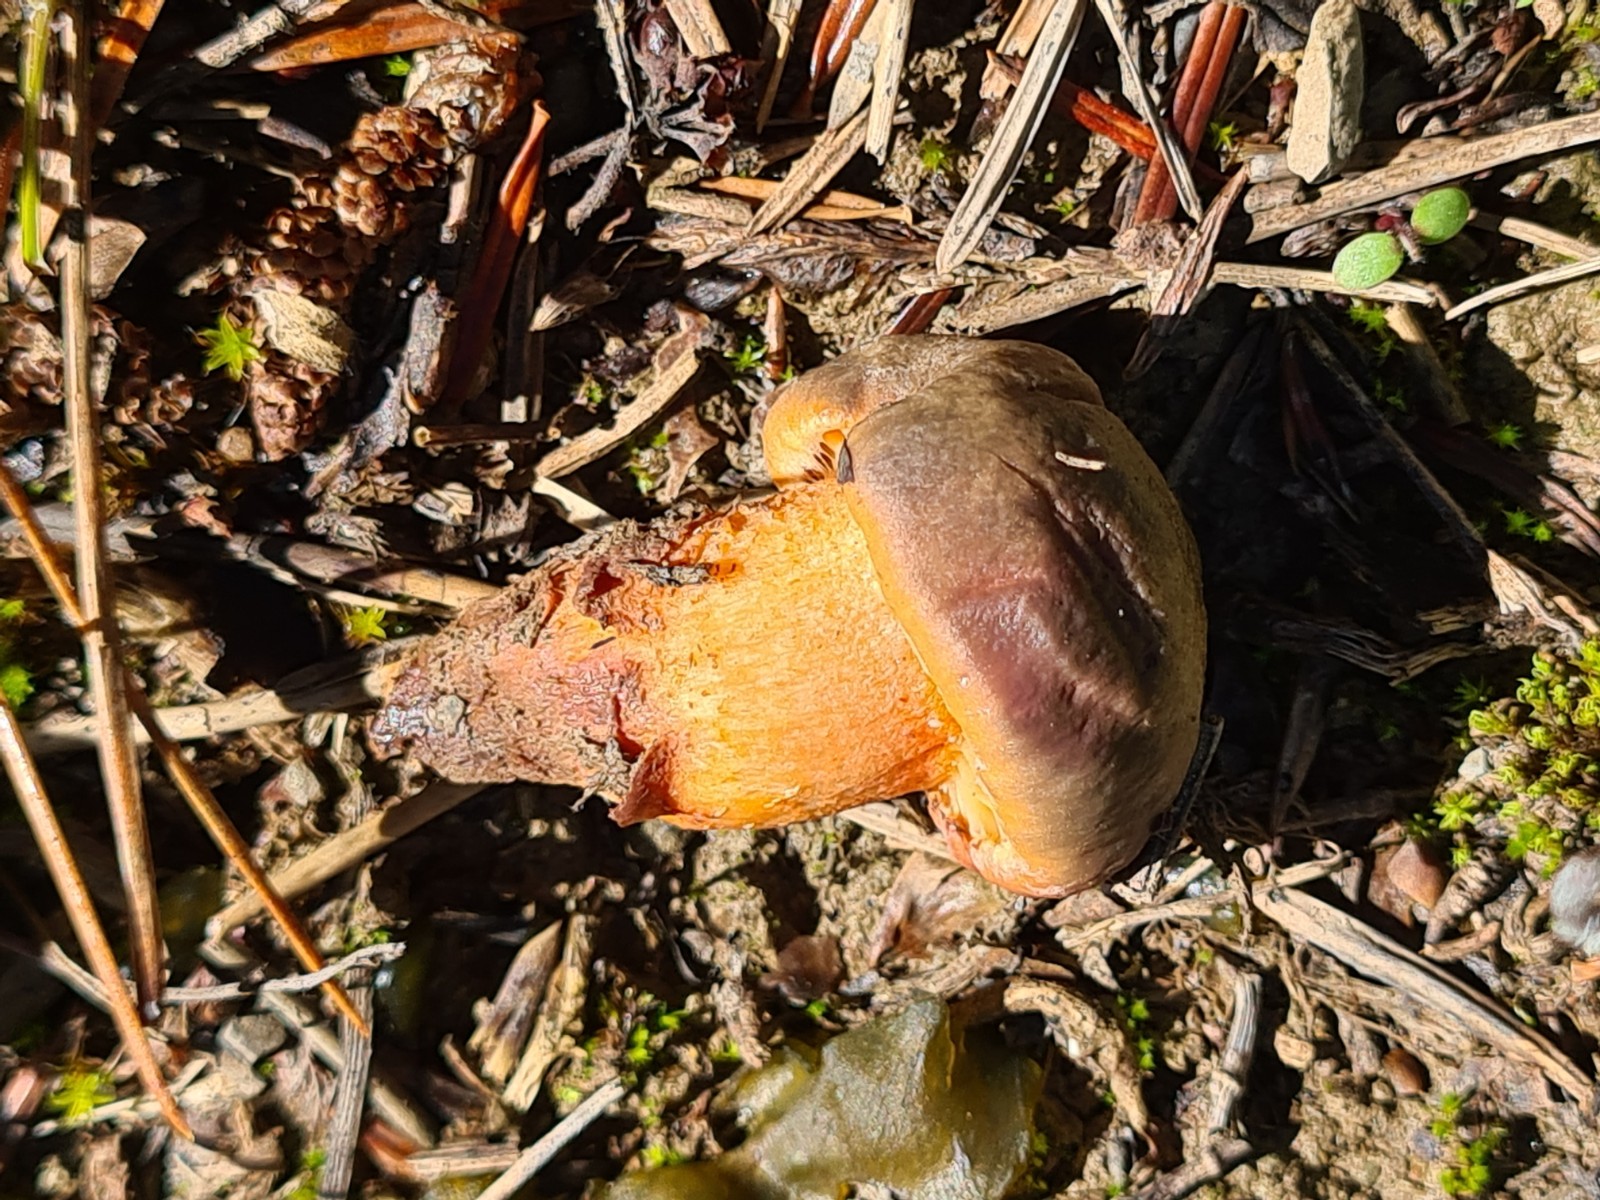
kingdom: Fungi
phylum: Basidiomycota
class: Agaricomycetes
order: Boletales
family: Gomphidiaceae
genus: Chroogomphus
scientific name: Chroogomphus
